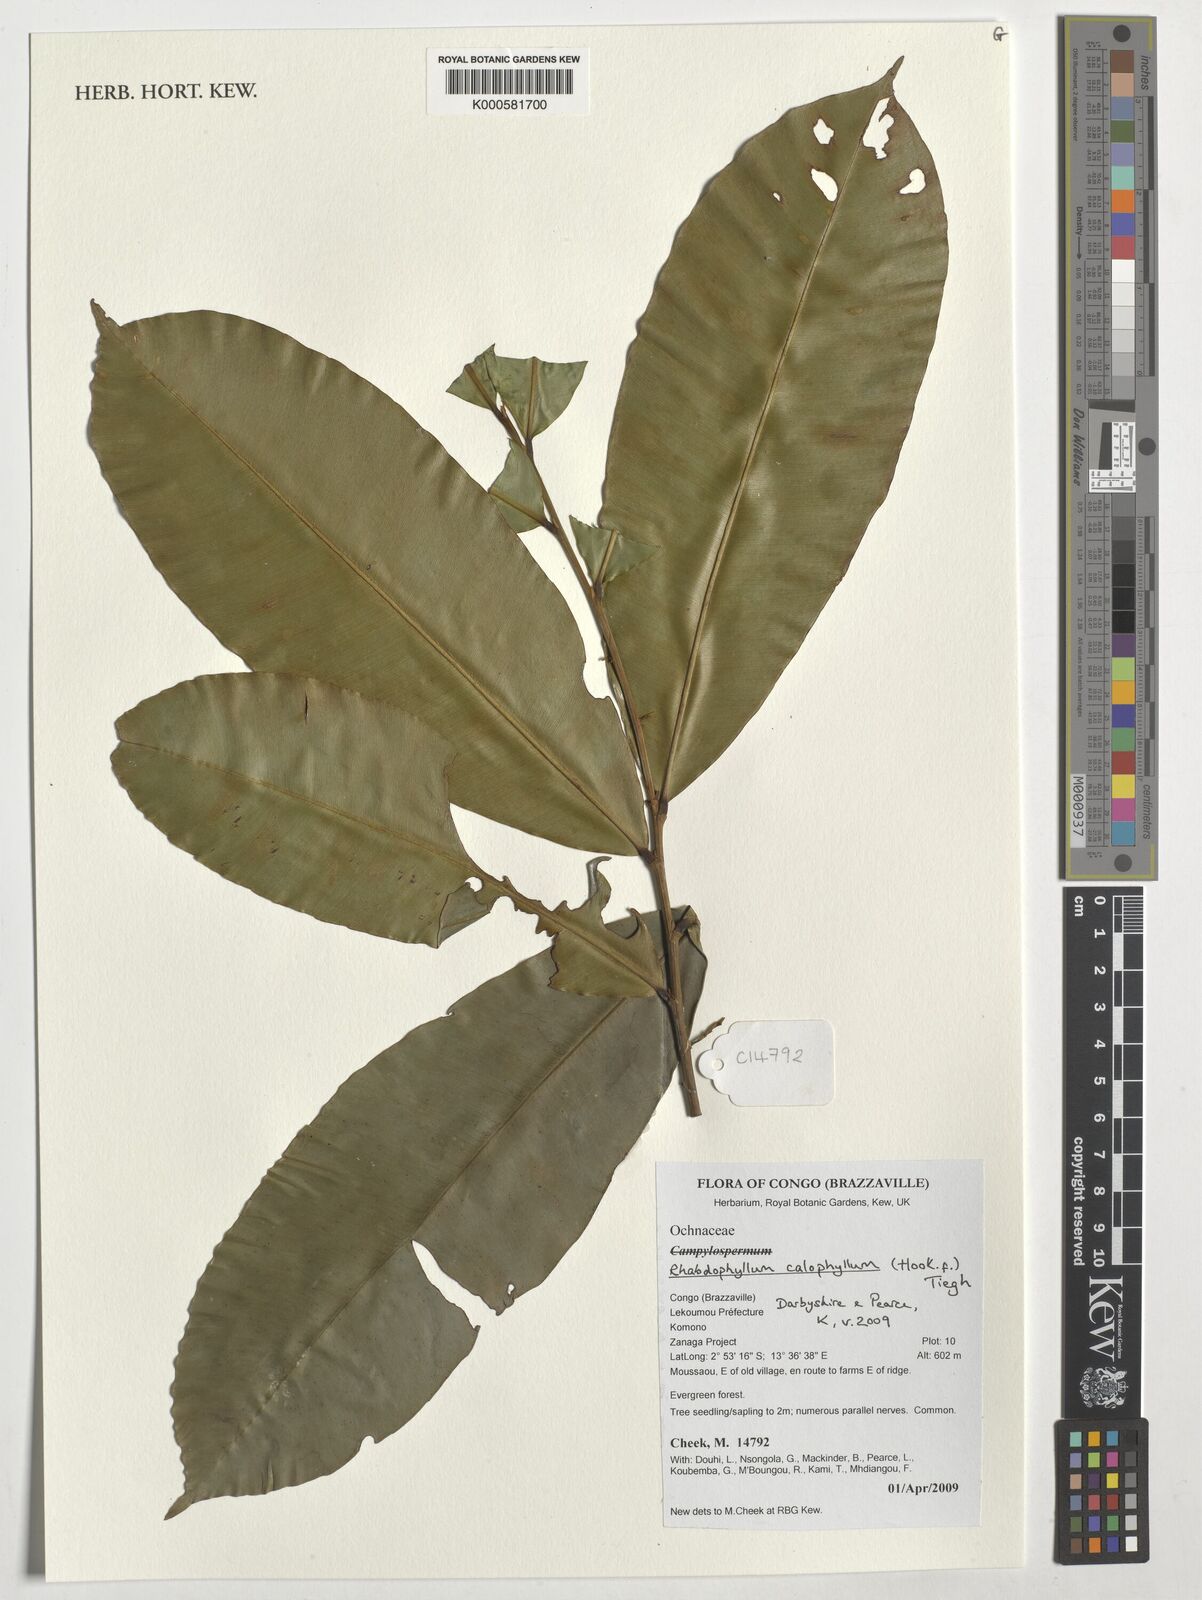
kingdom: Plantae
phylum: Tracheophyta
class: Magnoliopsida
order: Malpighiales
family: Ochnaceae
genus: Rhabdophyllum
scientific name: Rhabdophyllum calophyllum
